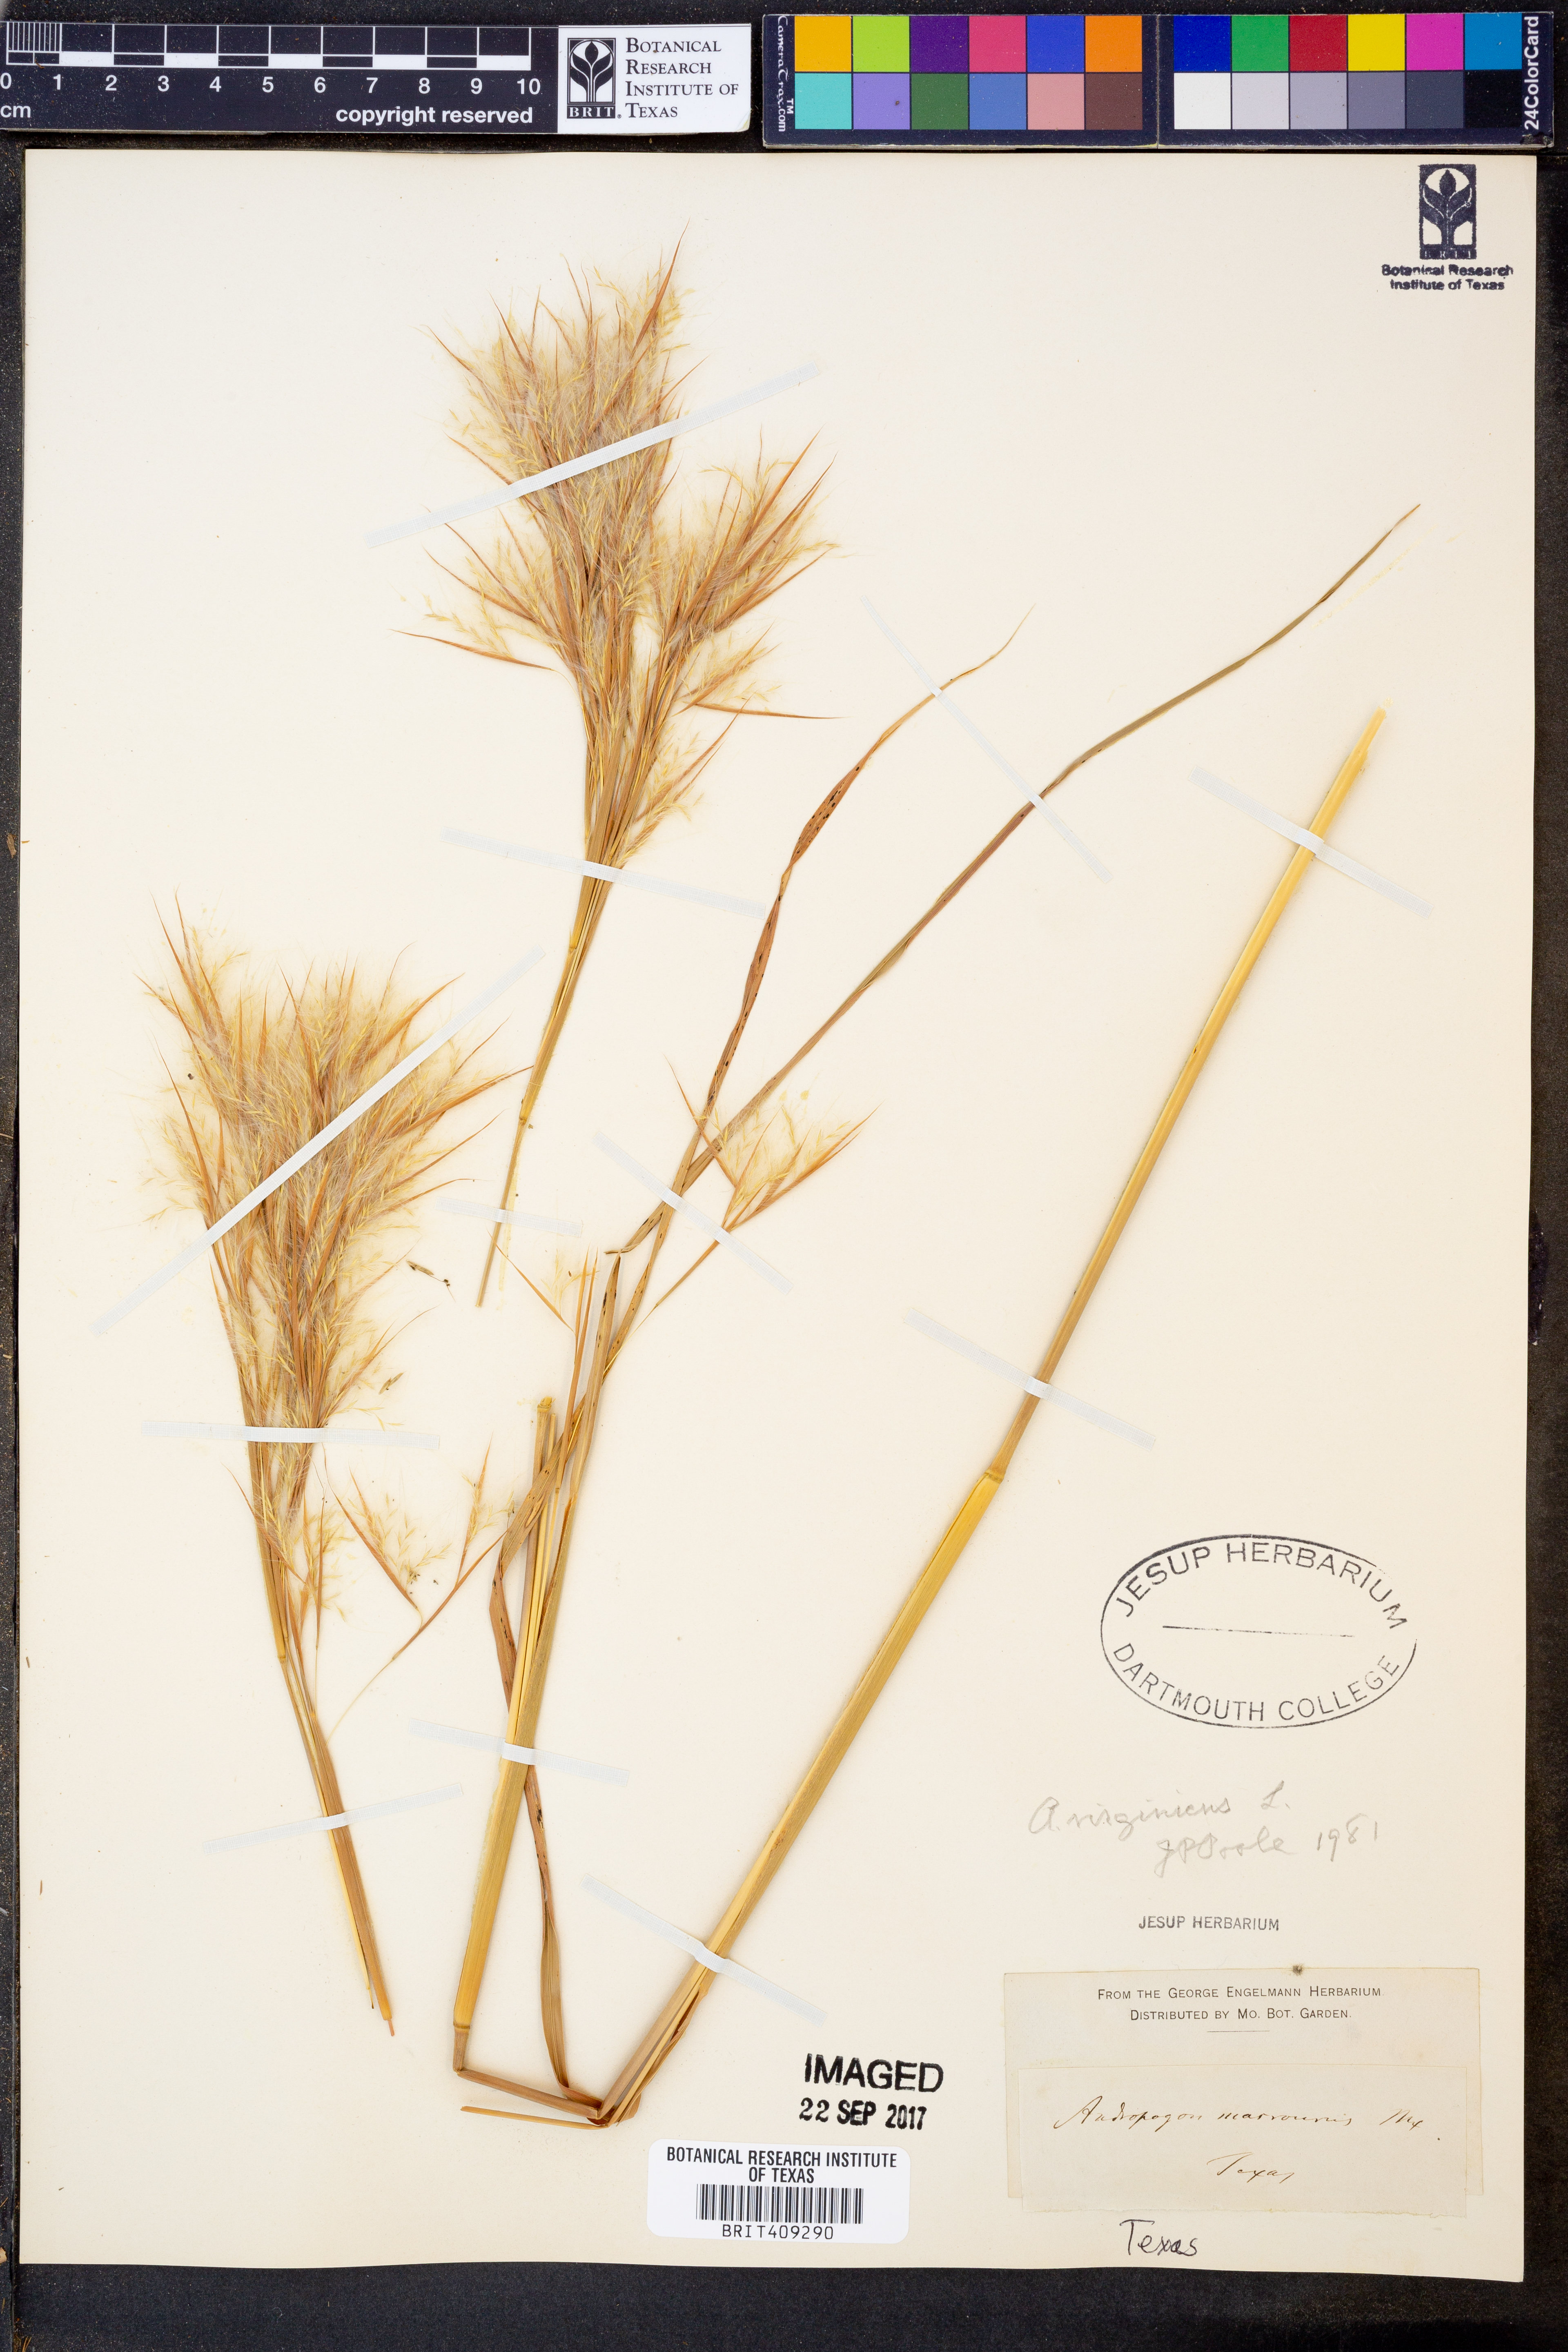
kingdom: Plantae
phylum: Tracheophyta
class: Liliopsida
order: Poales
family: Poaceae
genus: Andropogon
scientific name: Andropogon virginicus
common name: Broomsedge bluestem
